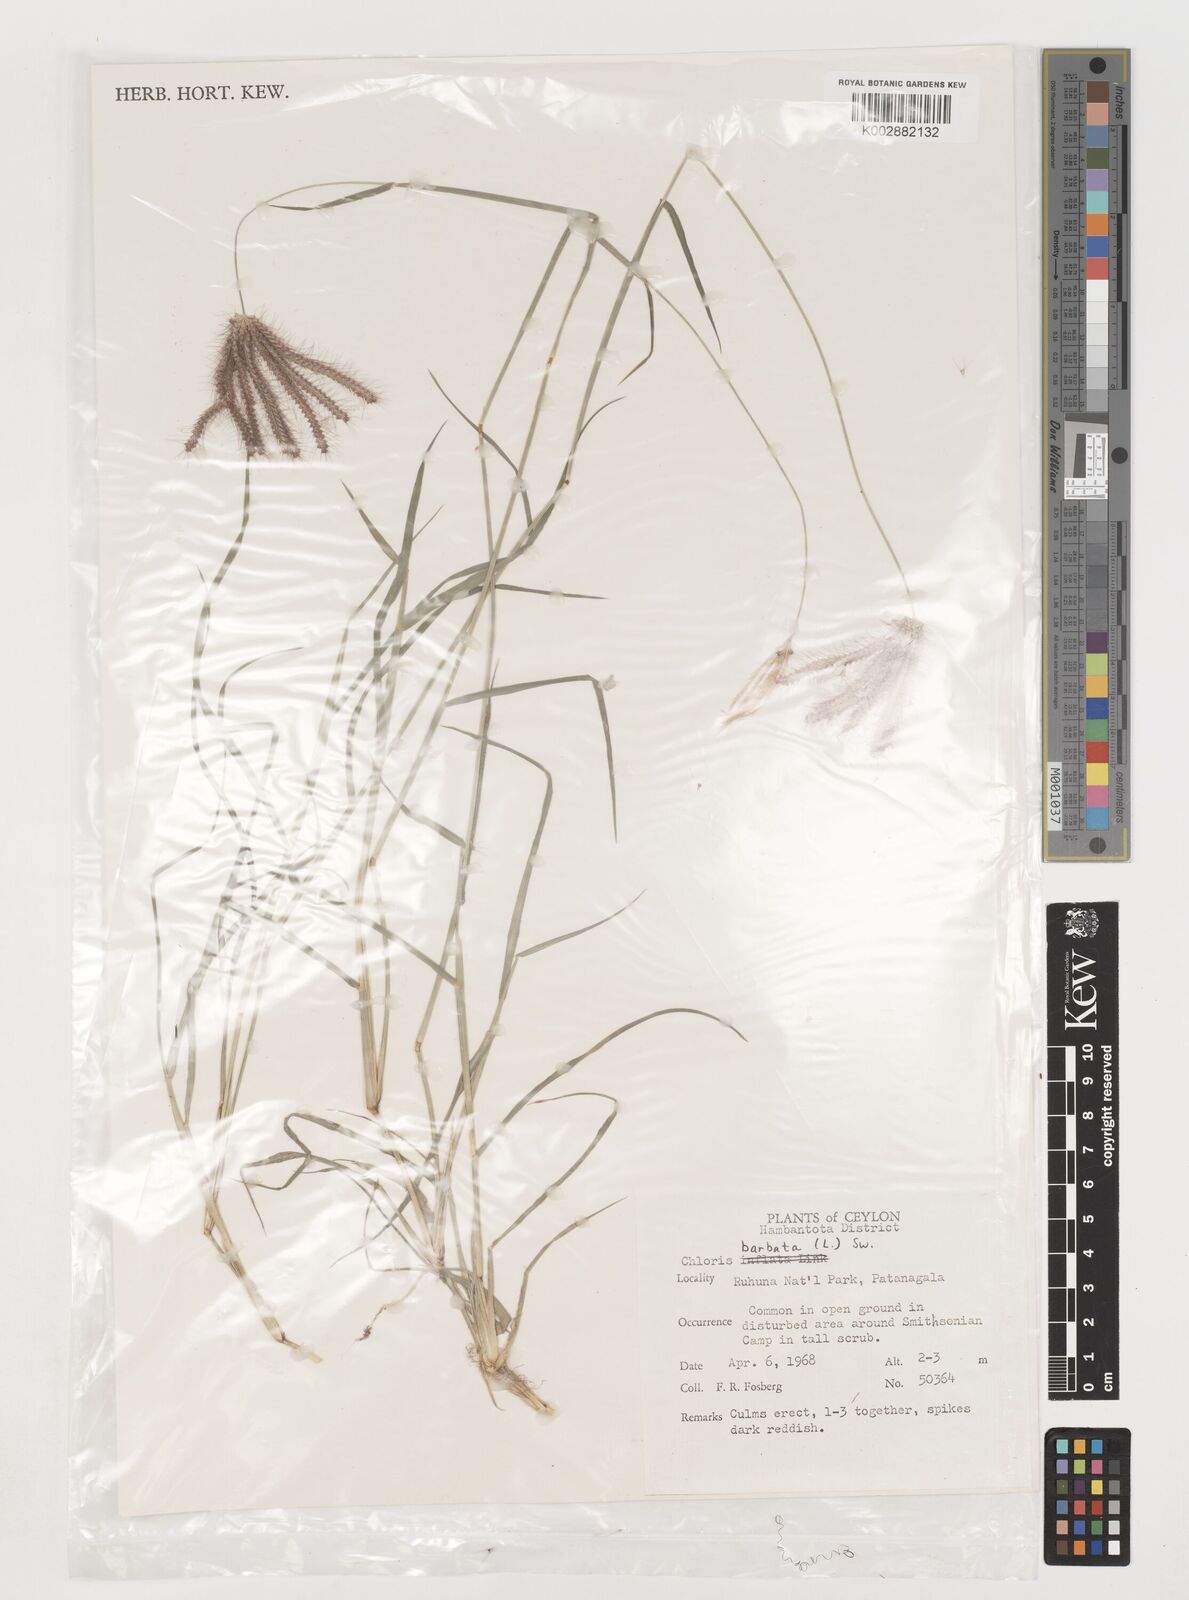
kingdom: Plantae
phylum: Tracheophyta
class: Liliopsida
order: Poales
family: Poaceae
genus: Chloris
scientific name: Chloris barbata
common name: Swollen fingergrass
